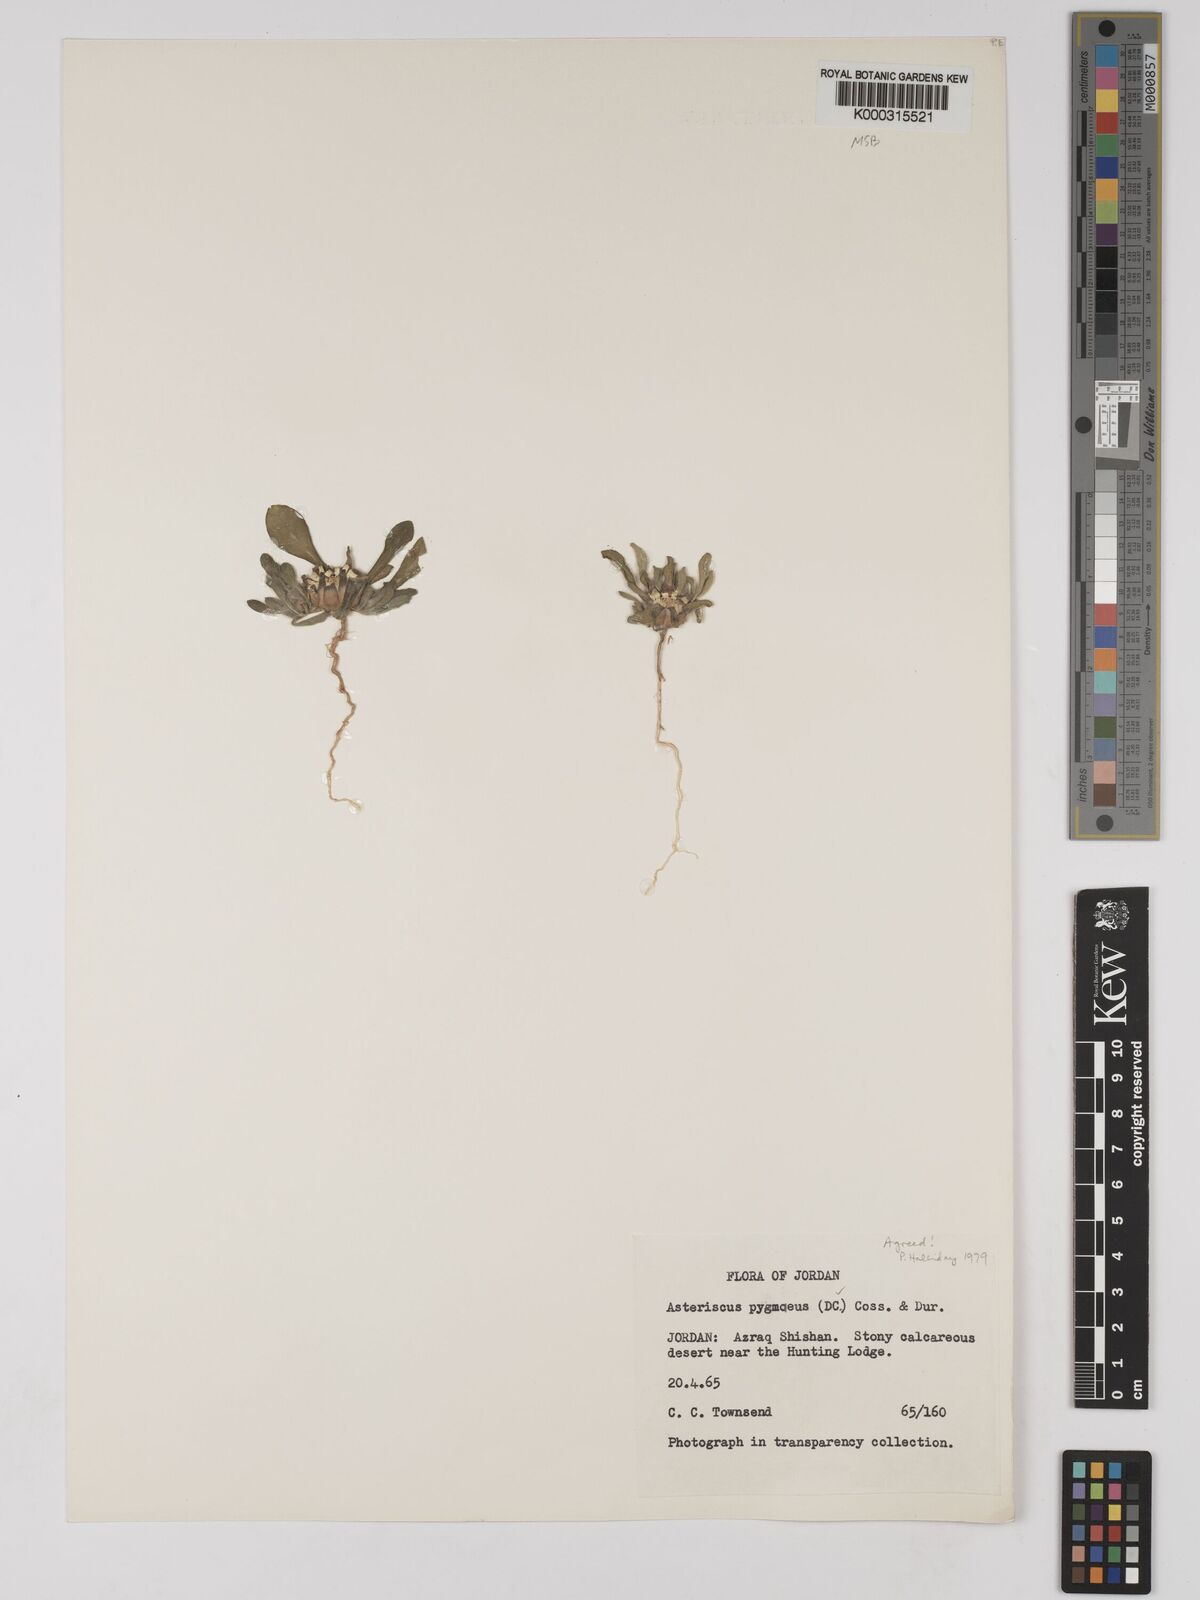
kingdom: Plantae
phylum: Tracheophyta
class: Magnoliopsida
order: Asterales
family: Asteraceae
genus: Pallenis
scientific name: Pallenis hierochuntica
